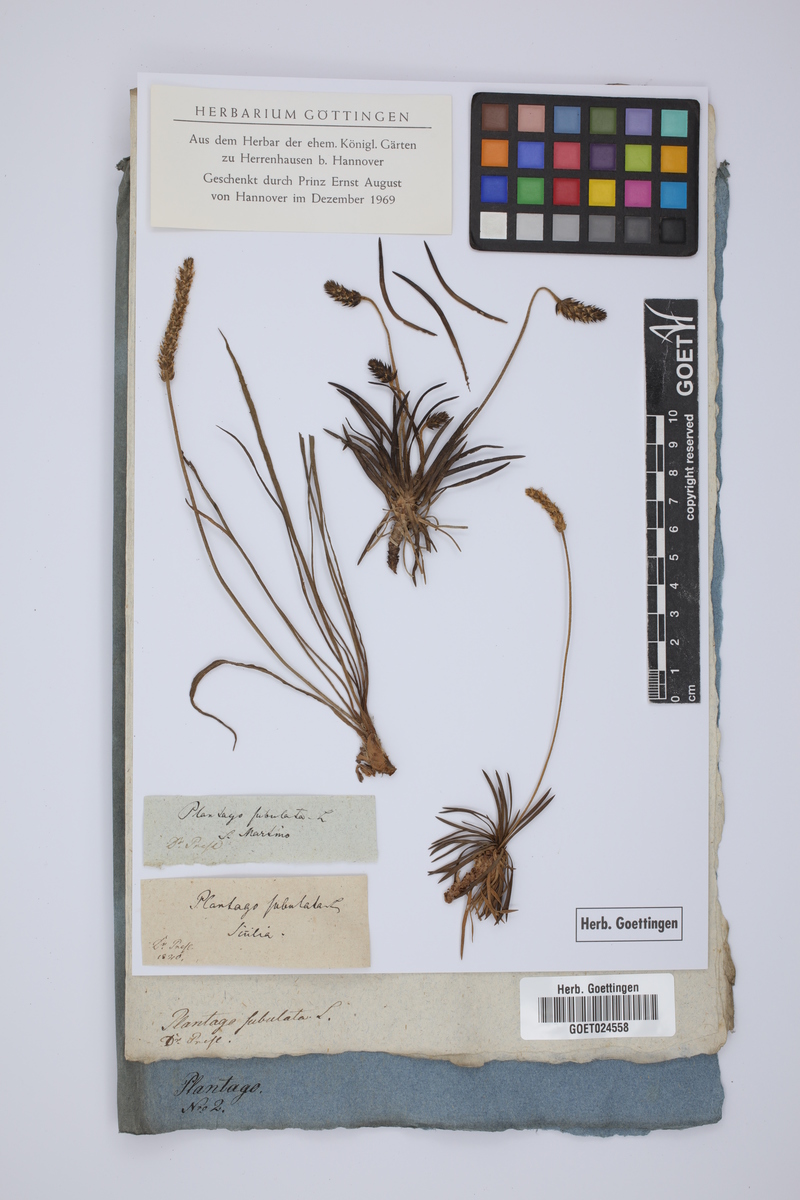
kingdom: Plantae
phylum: Tracheophyta
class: Magnoliopsida
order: Lamiales
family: Plantaginaceae
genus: Plantago
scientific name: Plantago subulata
